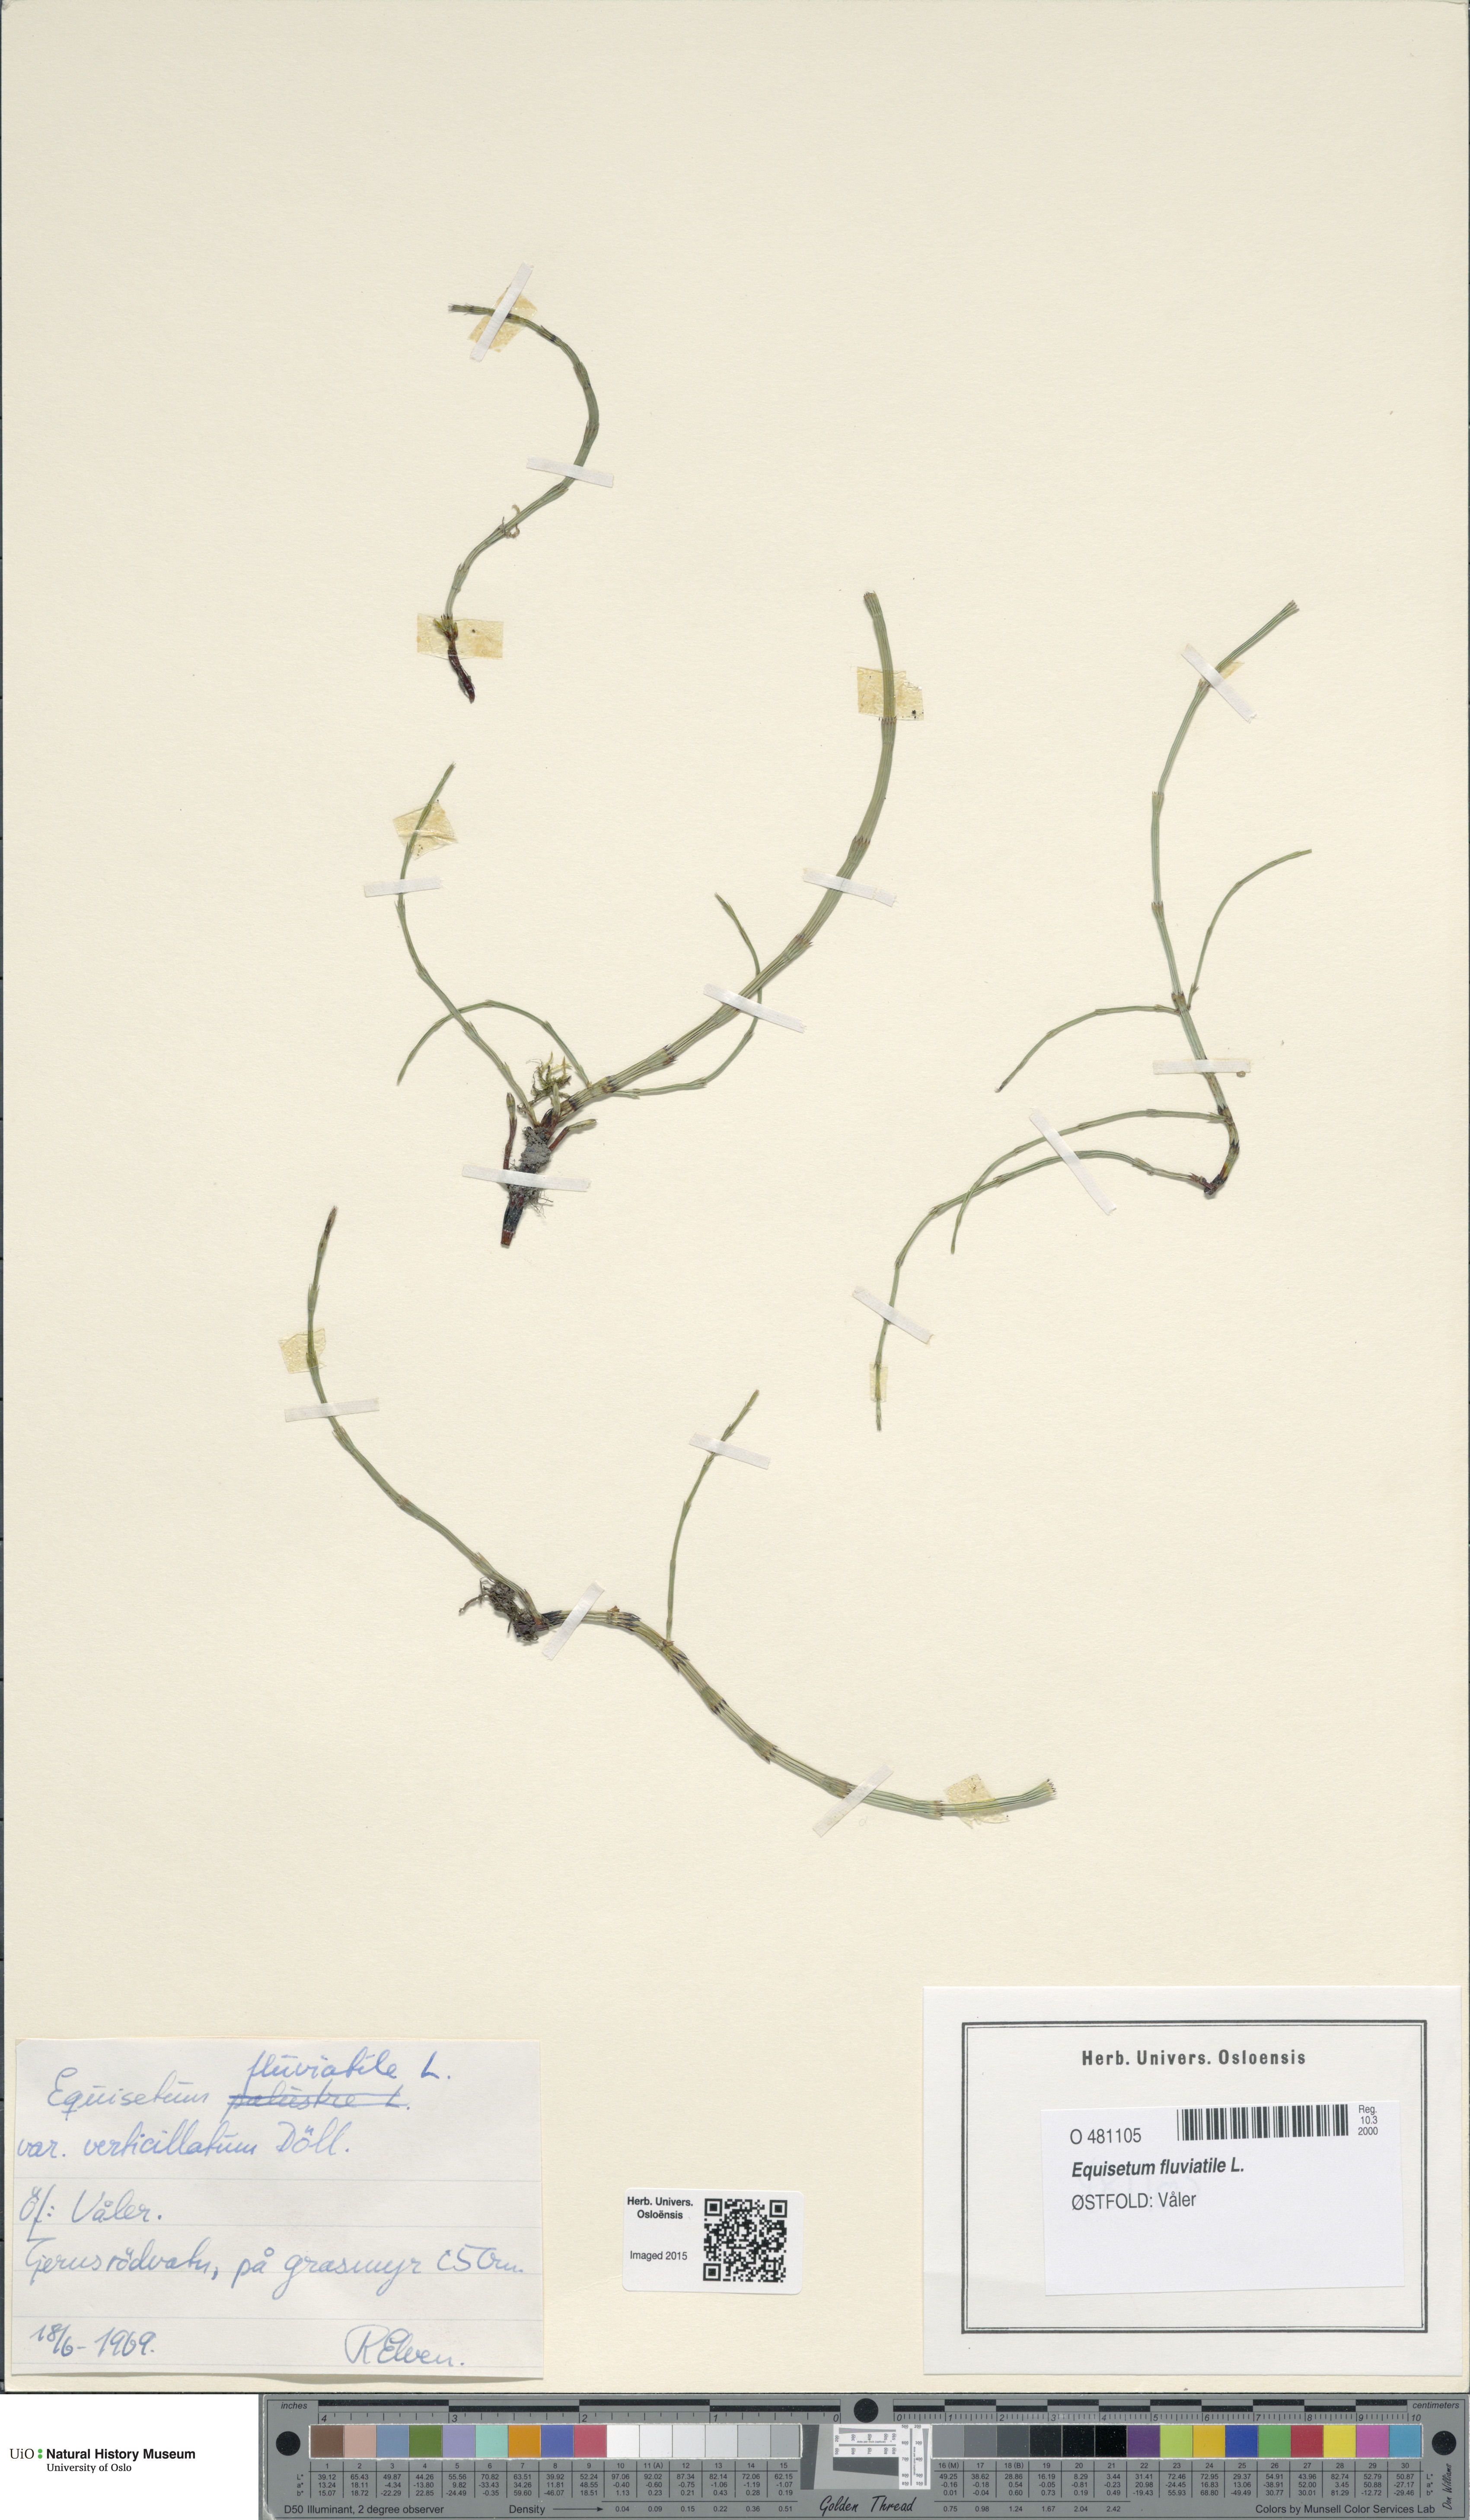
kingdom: Plantae
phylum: Tracheophyta
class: Polypodiopsida
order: Equisetales
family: Equisetaceae
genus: Equisetum
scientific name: Equisetum fluviatile
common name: Water horsetail
